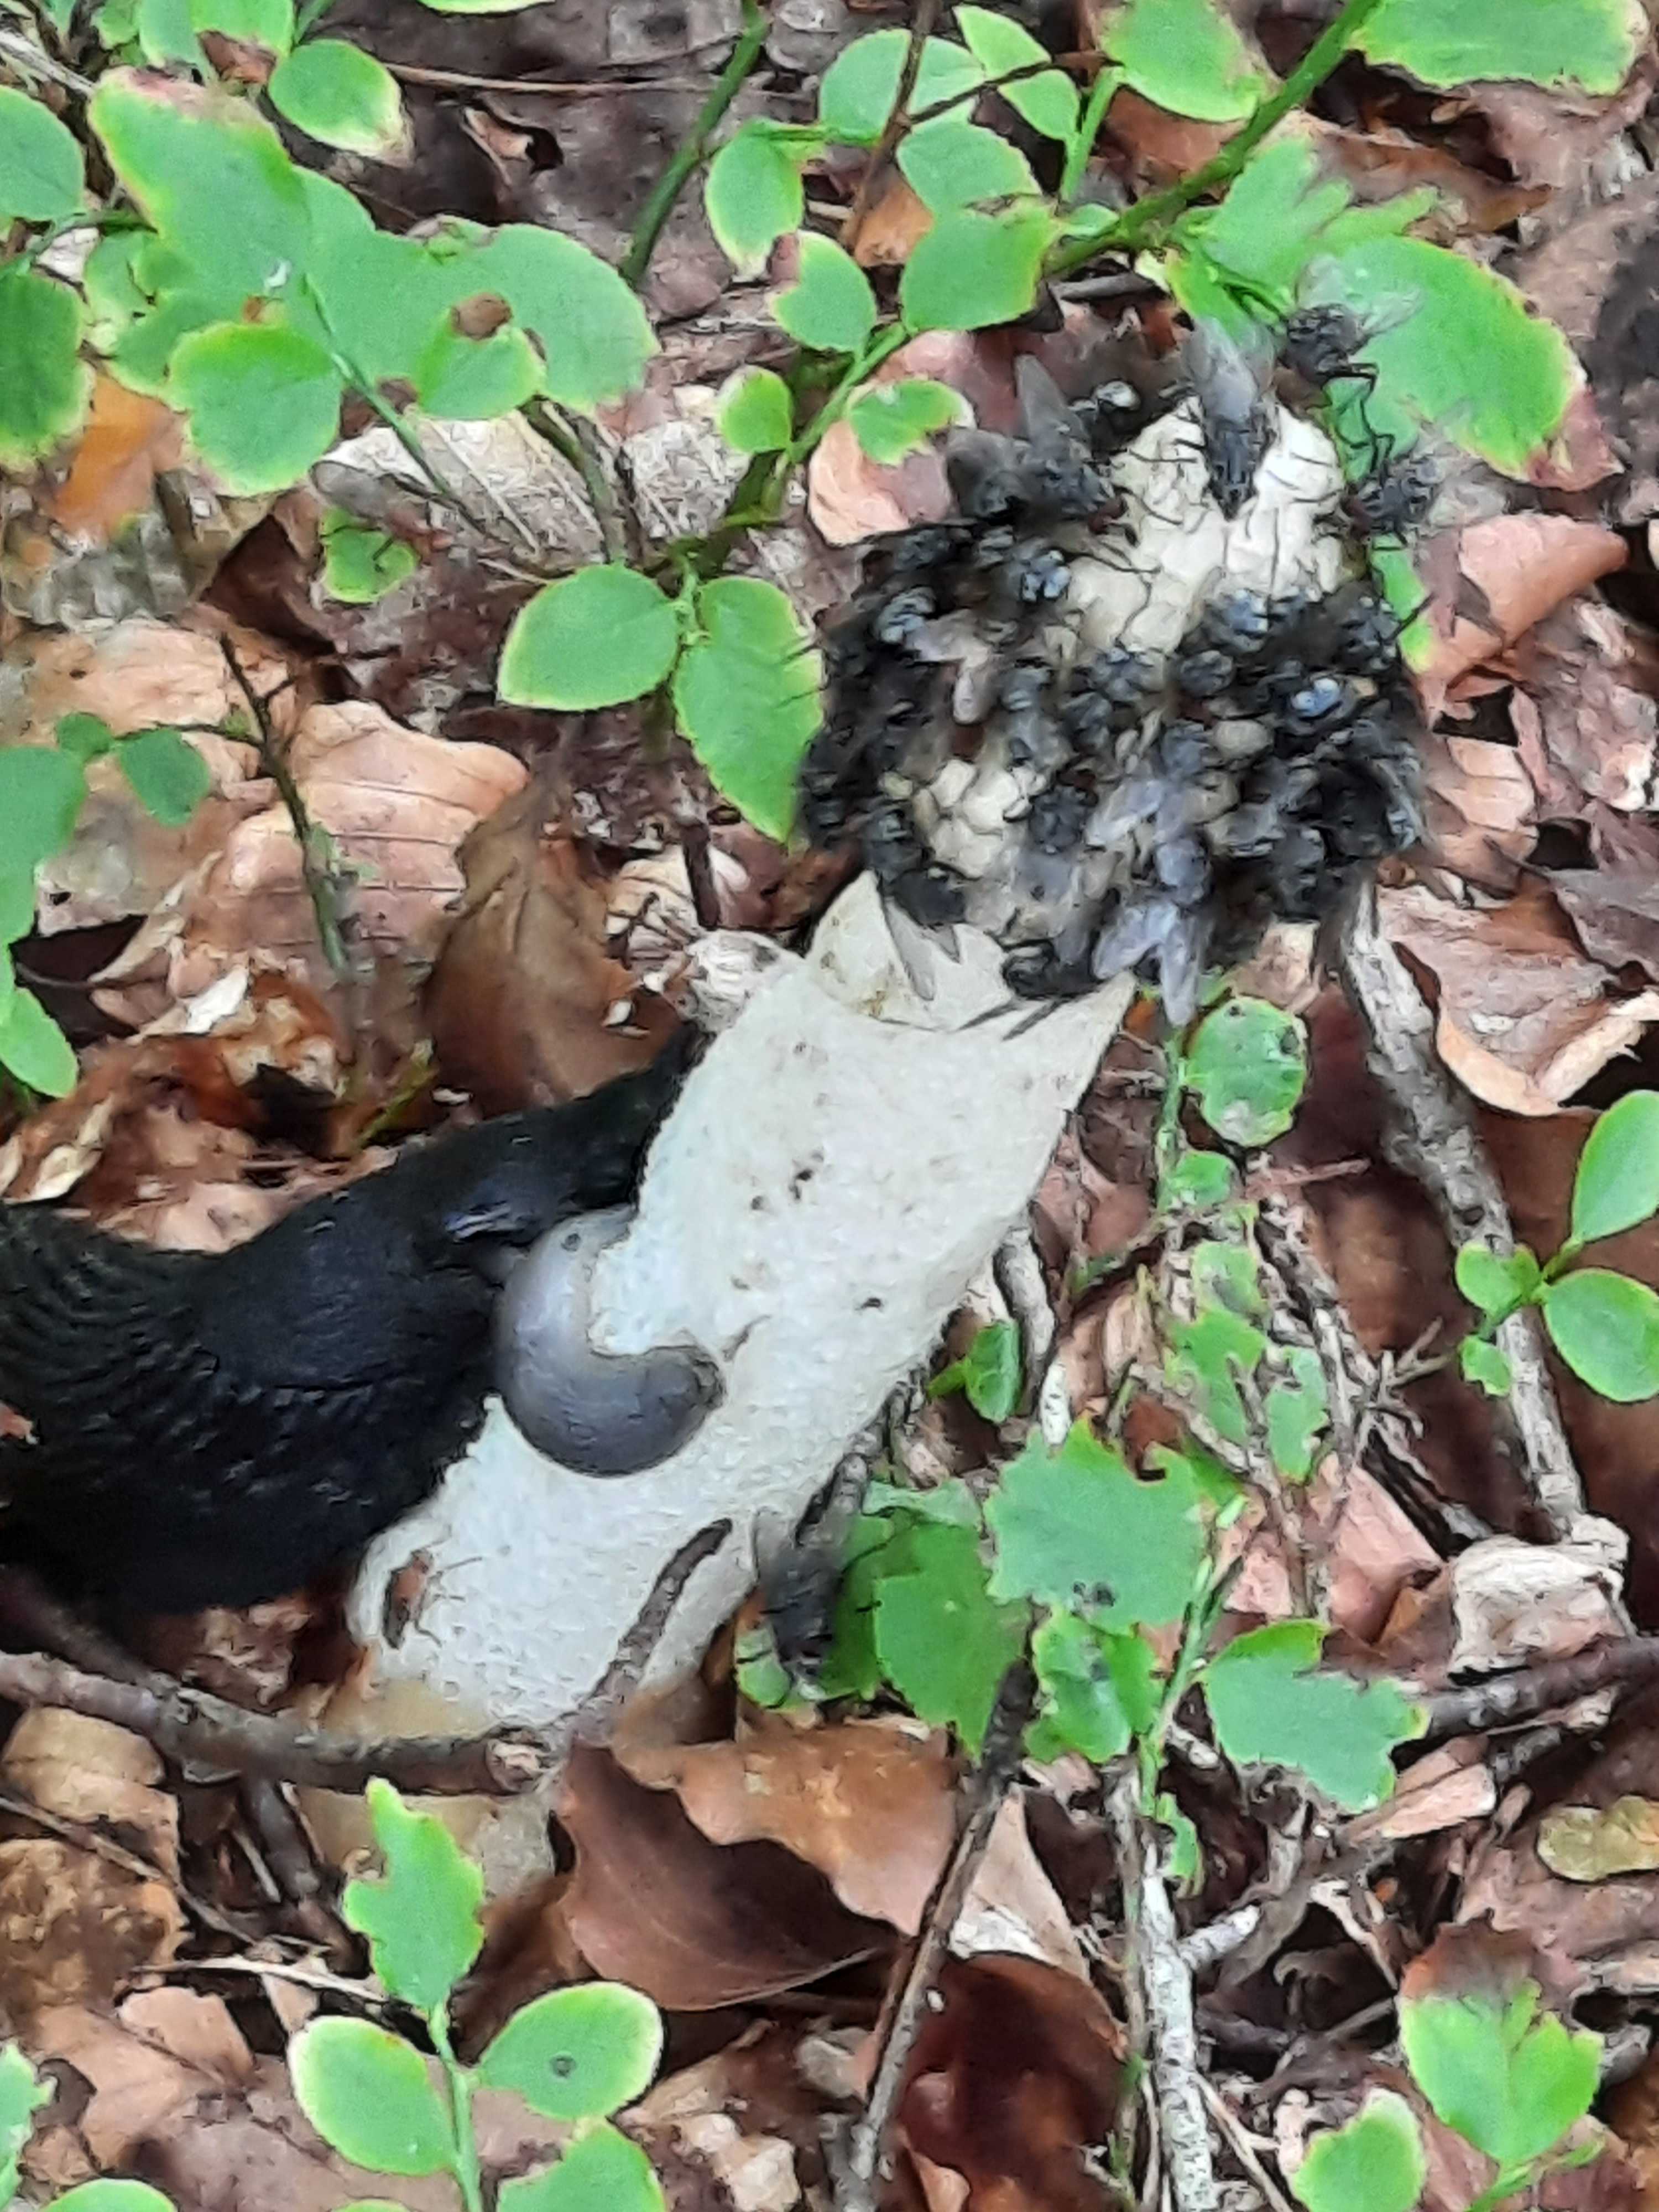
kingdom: Fungi
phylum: Basidiomycota
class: Agaricomycetes
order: Phallales
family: Phallaceae
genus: Phallus
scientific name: Phallus impudicus
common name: almindelig stinksvamp
